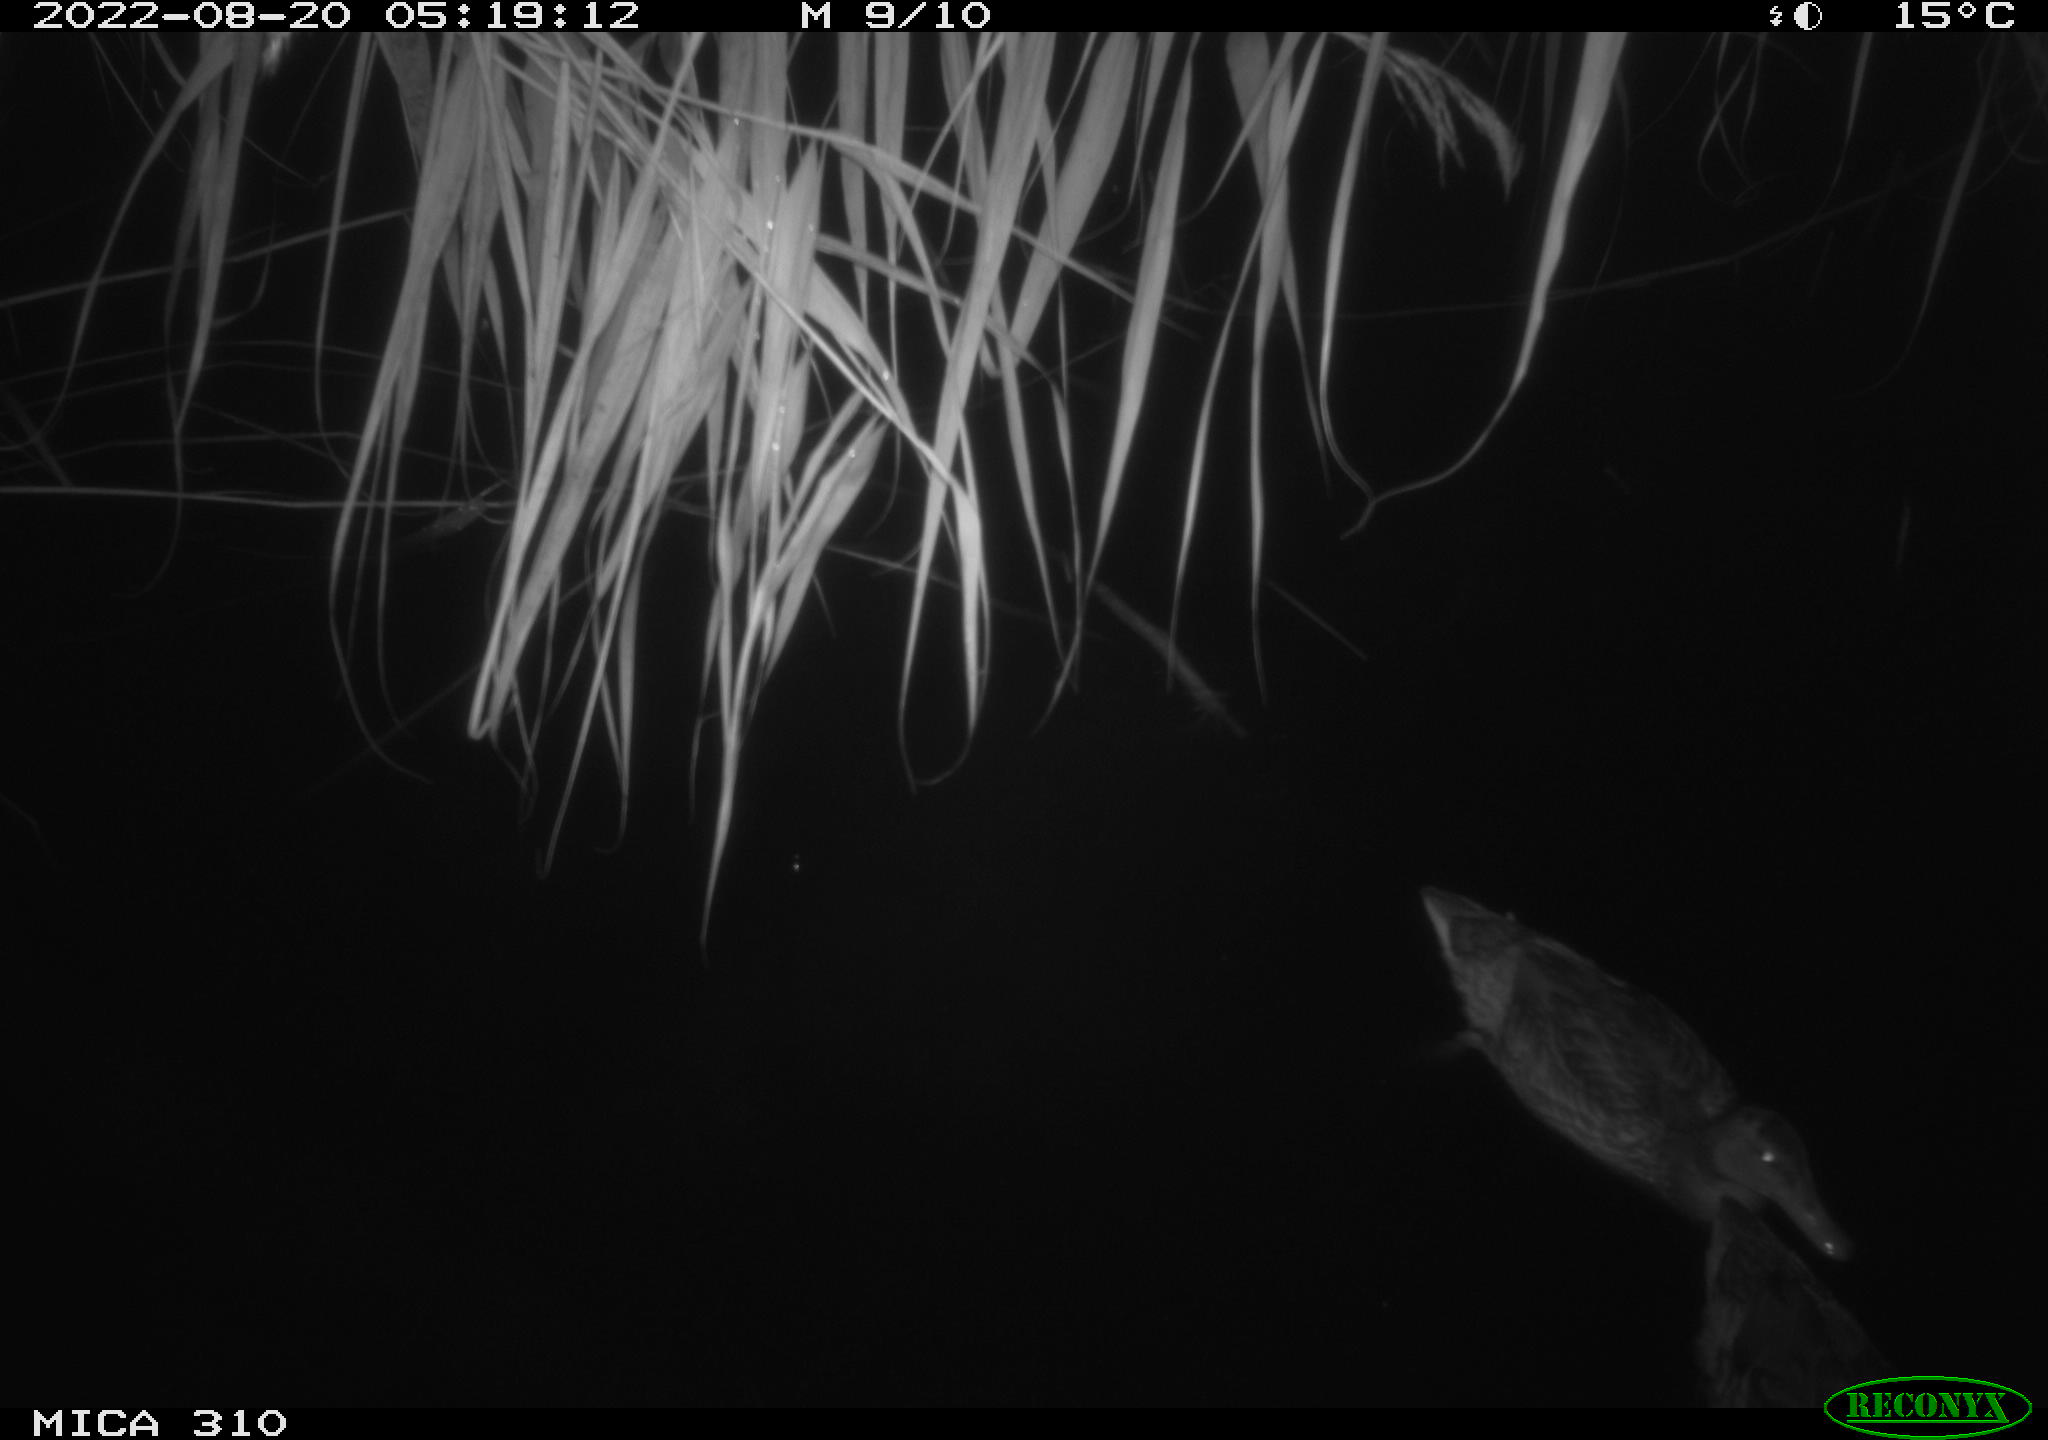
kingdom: Animalia
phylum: Chordata
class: Aves
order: Anseriformes
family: Anatidae
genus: Anas
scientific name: Anas platyrhynchos
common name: Mallard
